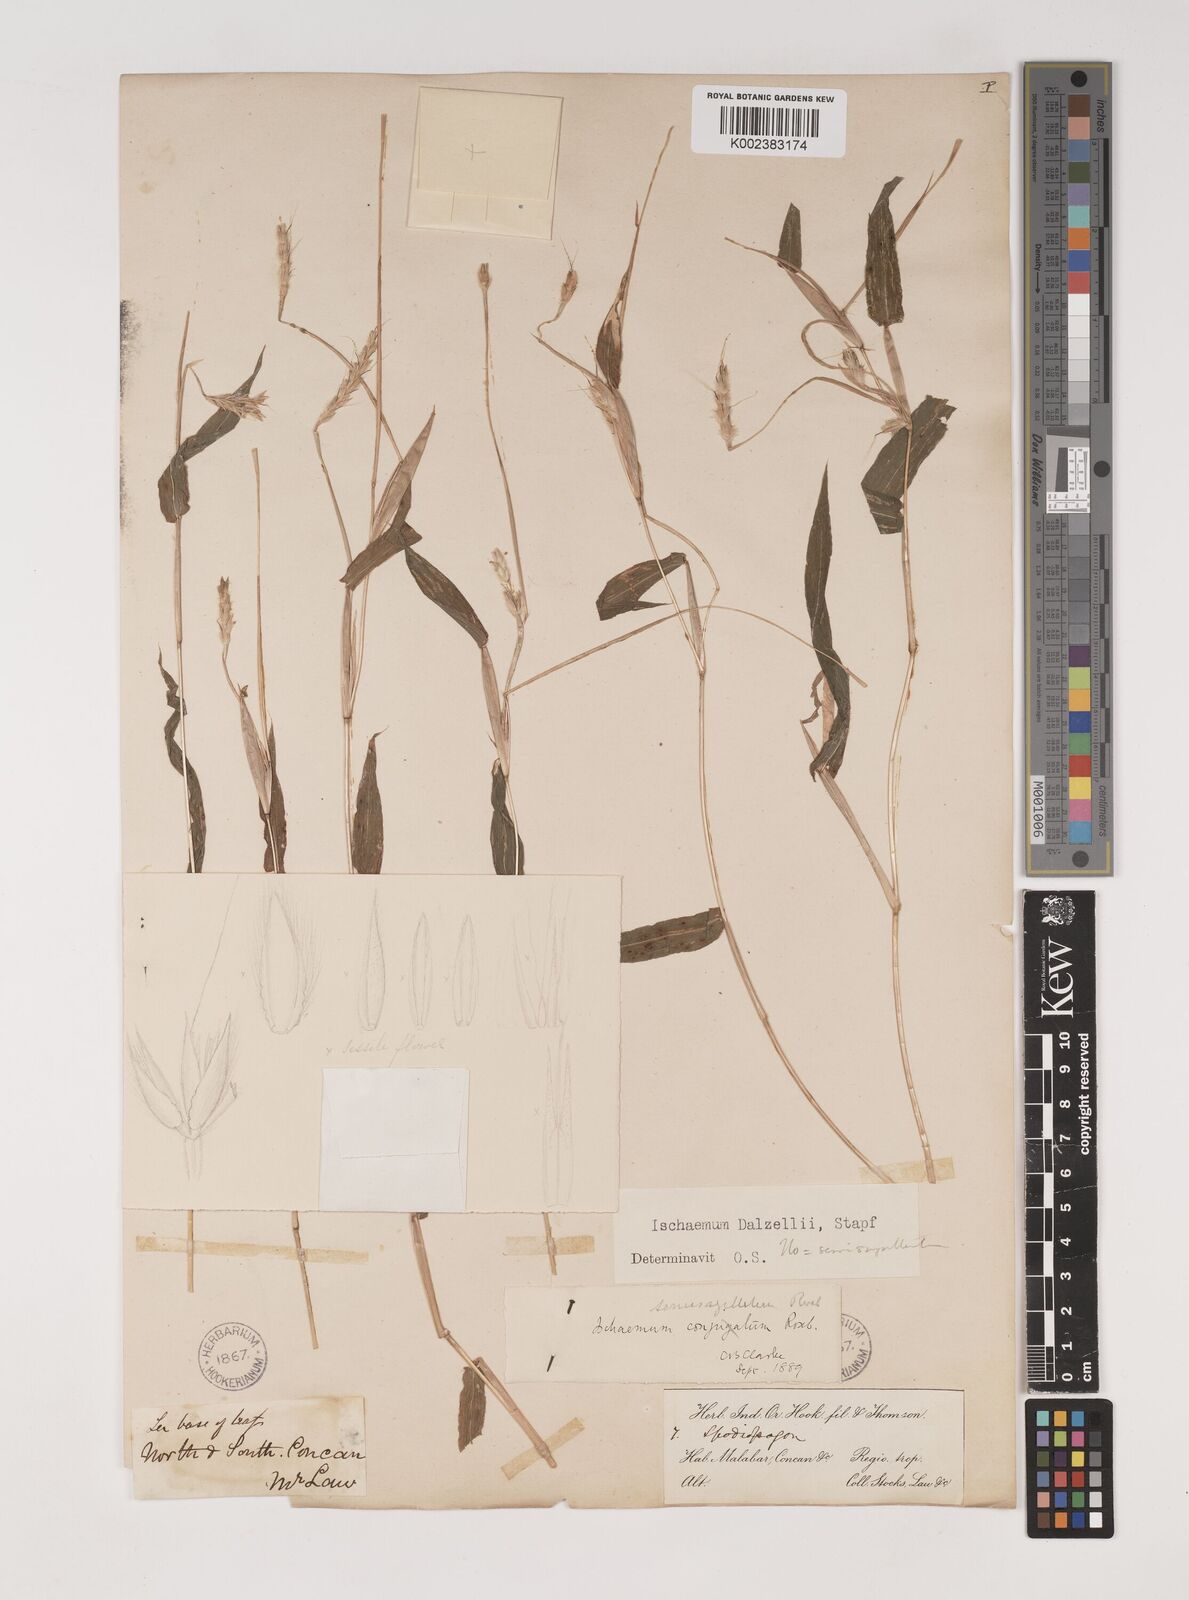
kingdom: Plantae
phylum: Tracheophyta
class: Liliopsida
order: Poales
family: Poaceae
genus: Ischaemum
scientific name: Ischaemum dalzellii
